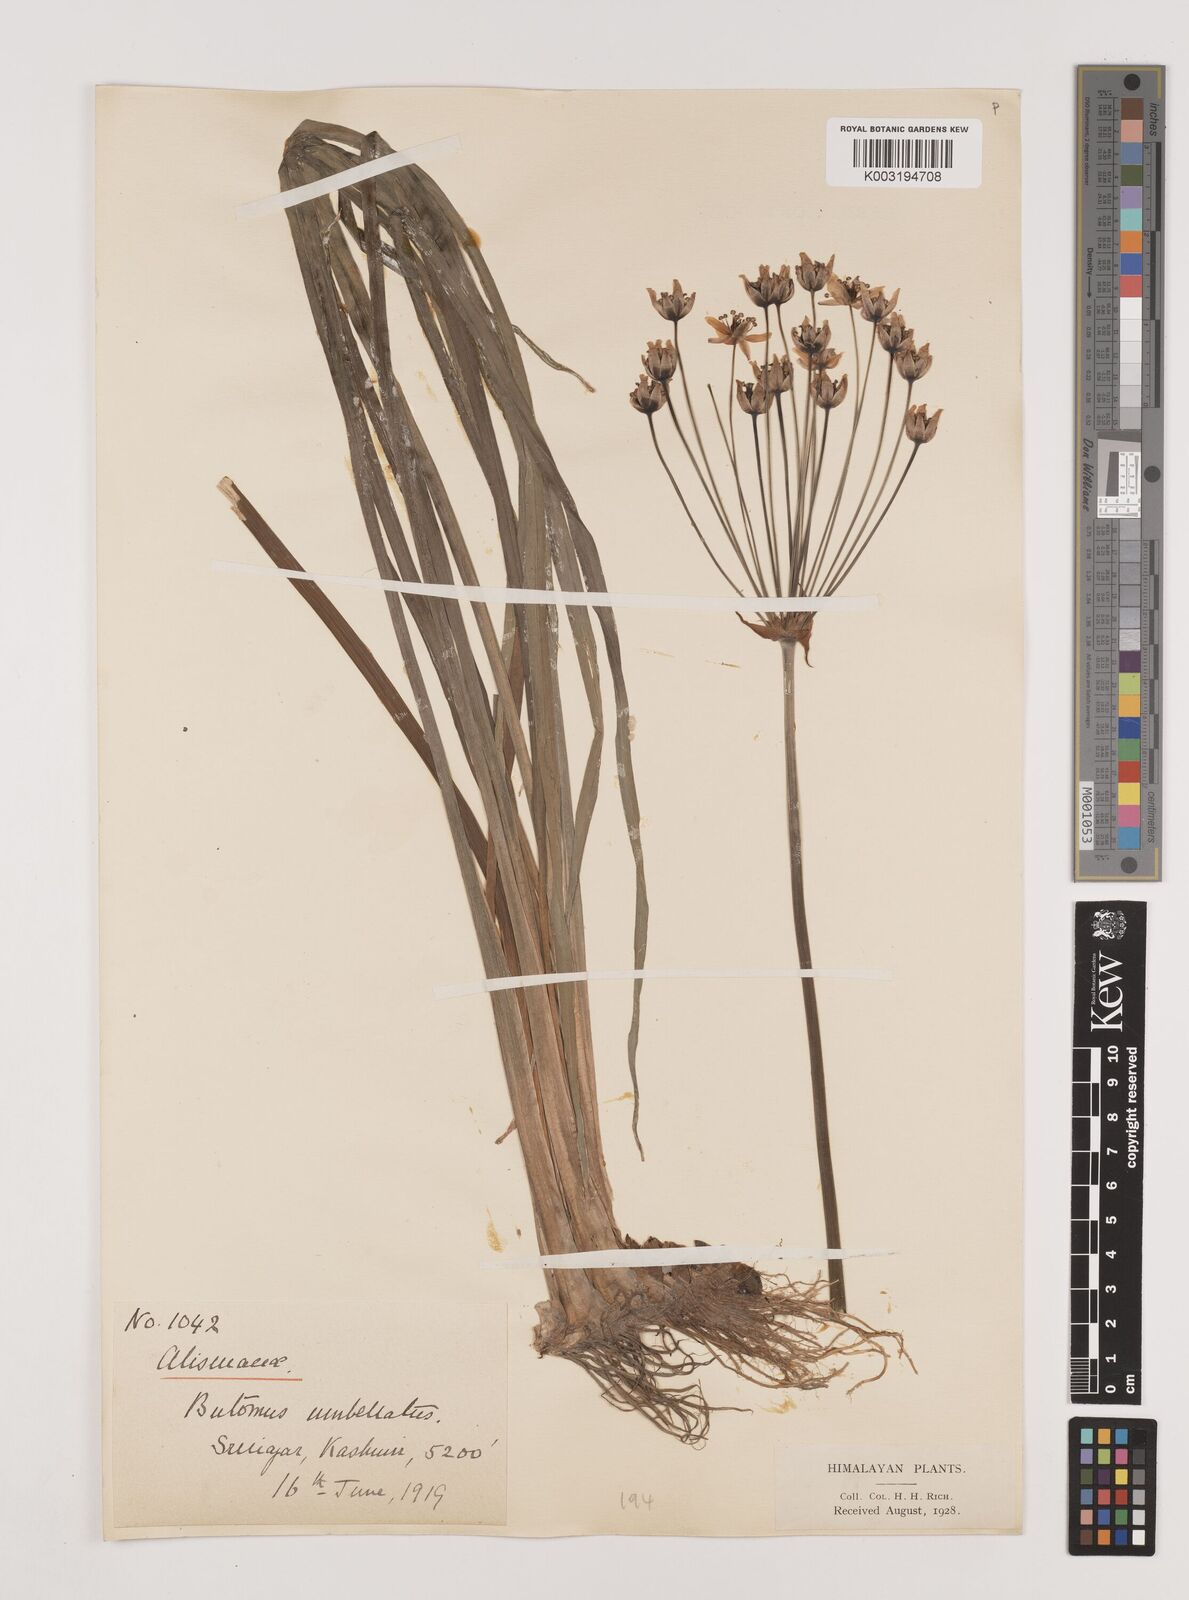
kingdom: Plantae
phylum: Tracheophyta
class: Liliopsida
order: Alismatales
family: Butomaceae
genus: Butomus
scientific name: Butomus umbellatus
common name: Flowering-rush
